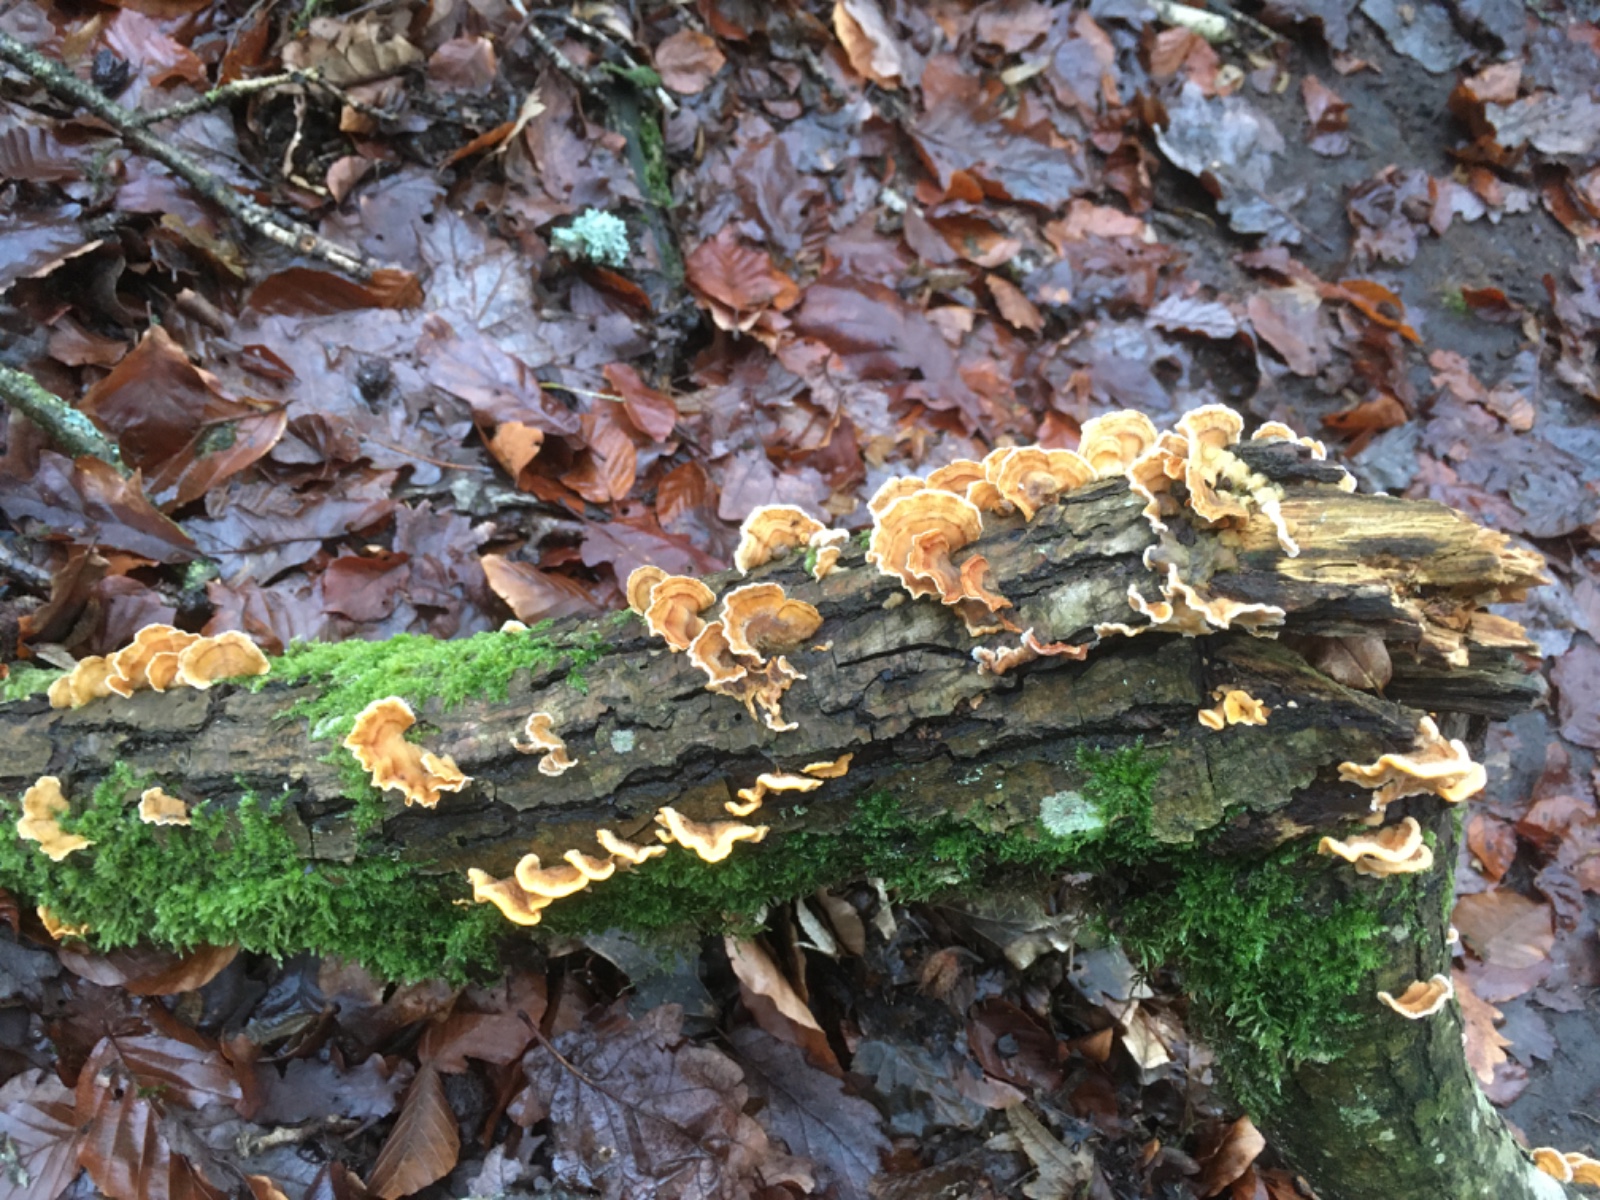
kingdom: Fungi
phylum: Basidiomycota
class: Agaricomycetes
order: Russulales
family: Stereaceae
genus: Stereum
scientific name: Stereum hirsutum
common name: håret lædersvamp
